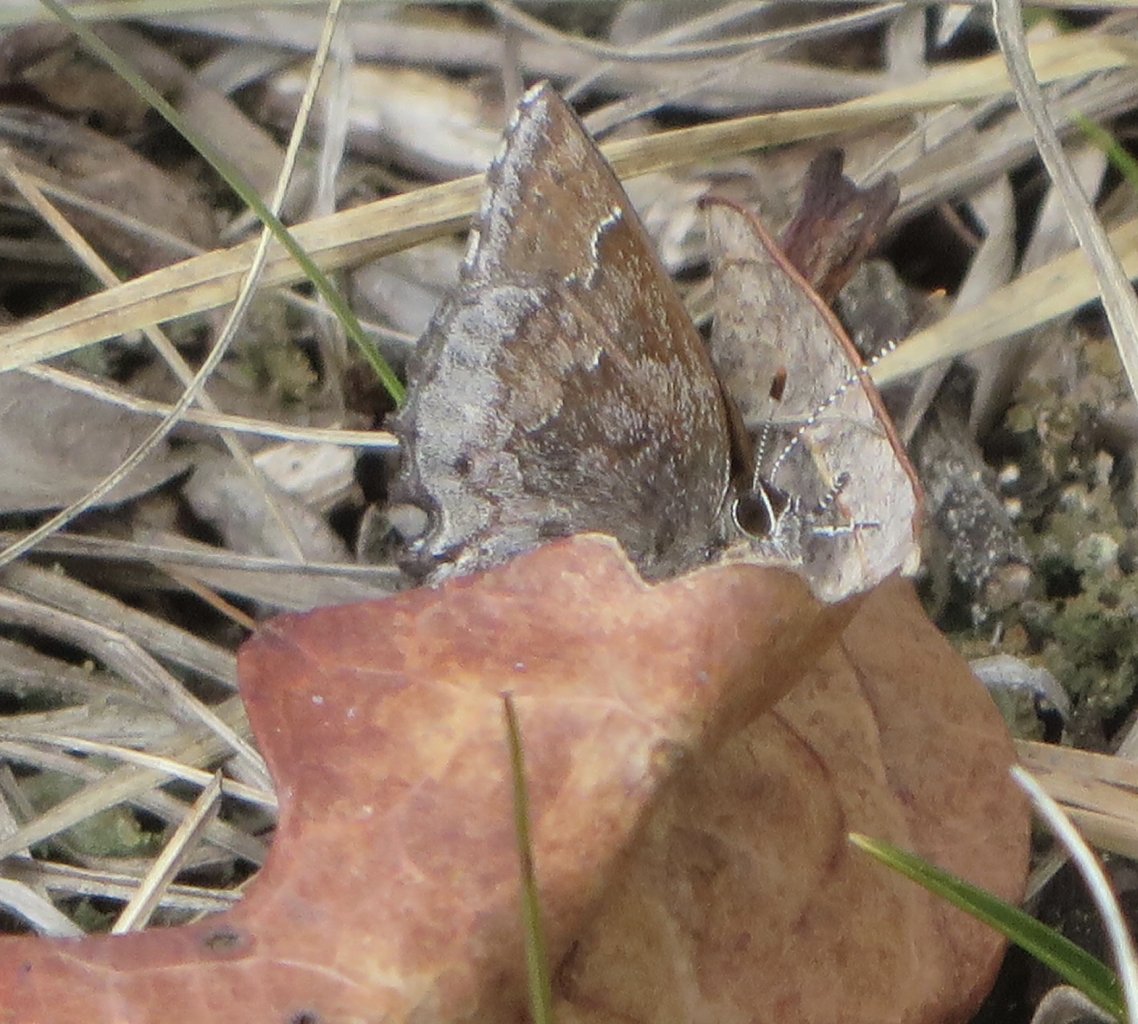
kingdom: Animalia
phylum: Arthropoda
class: Insecta
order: Lepidoptera
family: Lycaenidae
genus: Callophrys
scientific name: Callophrys polios
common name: Hoary Elfin
